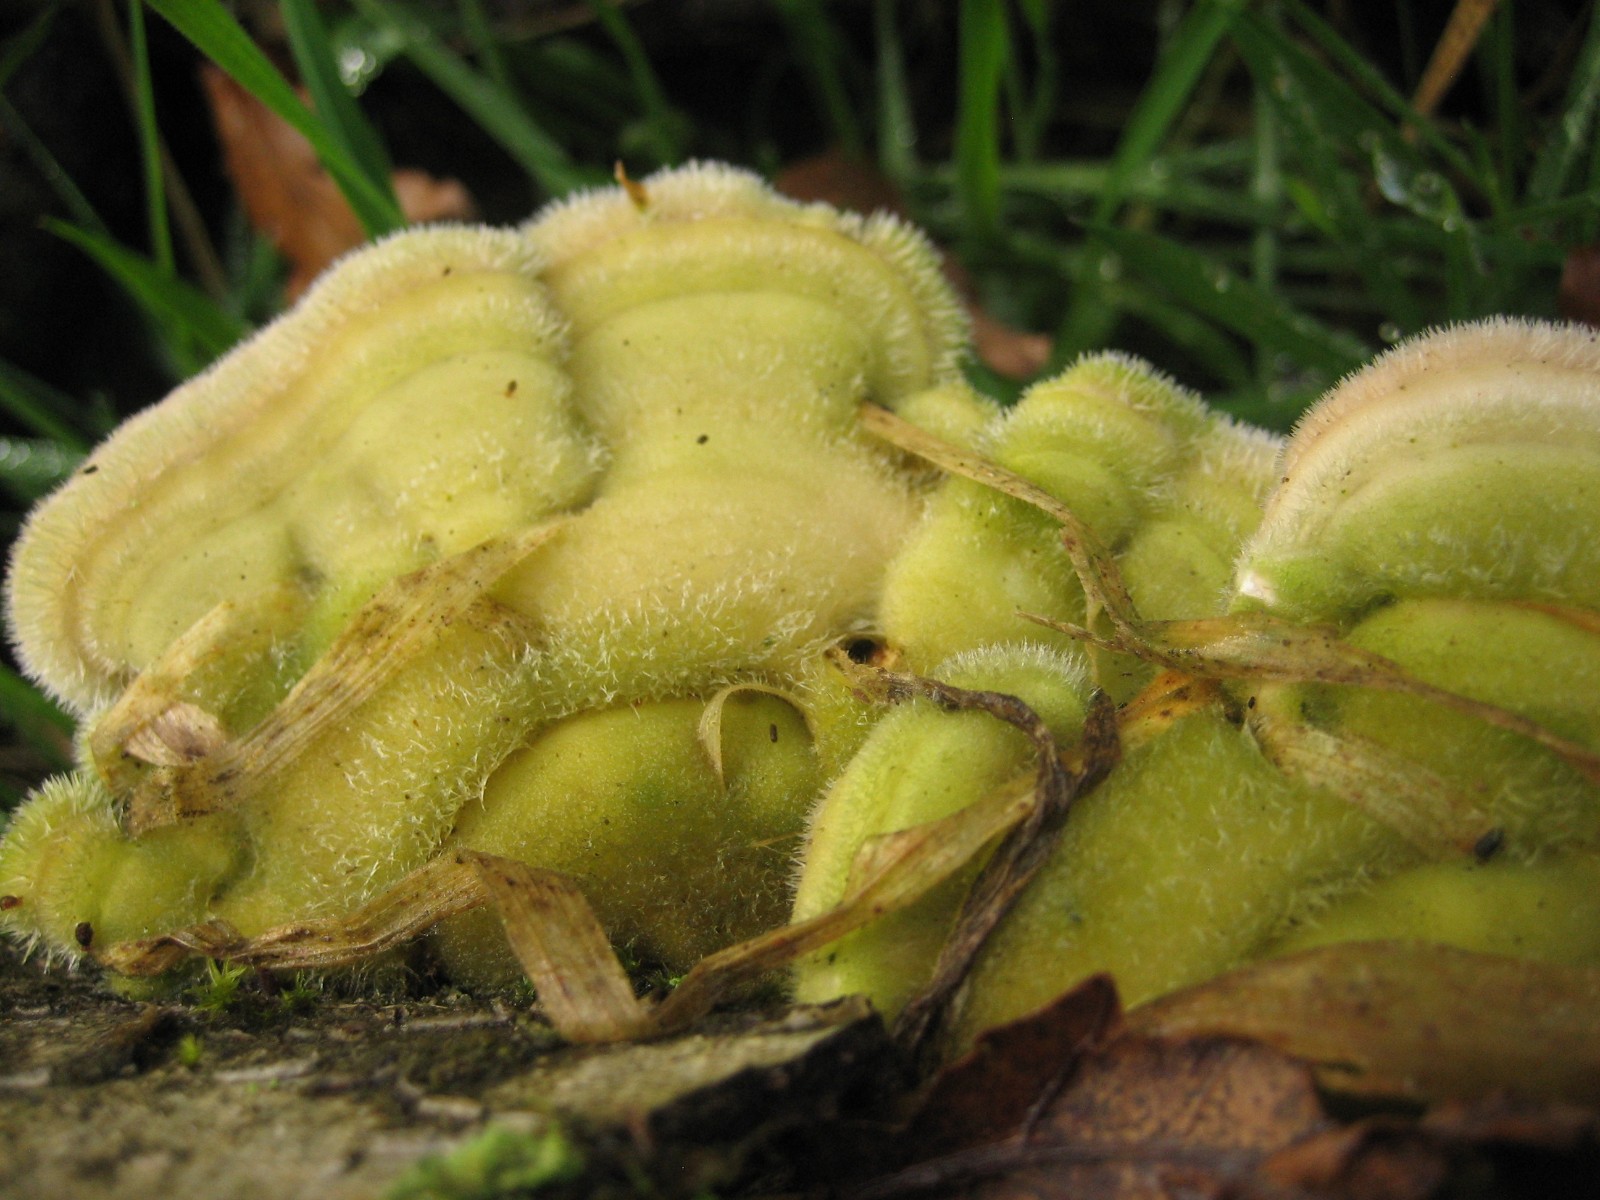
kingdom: Fungi
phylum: Basidiomycota
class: Agaricomycetes
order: Polyporales
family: Polyporaceae
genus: Trametes
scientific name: Trametes hirsuta
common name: håret læderporesvamp
